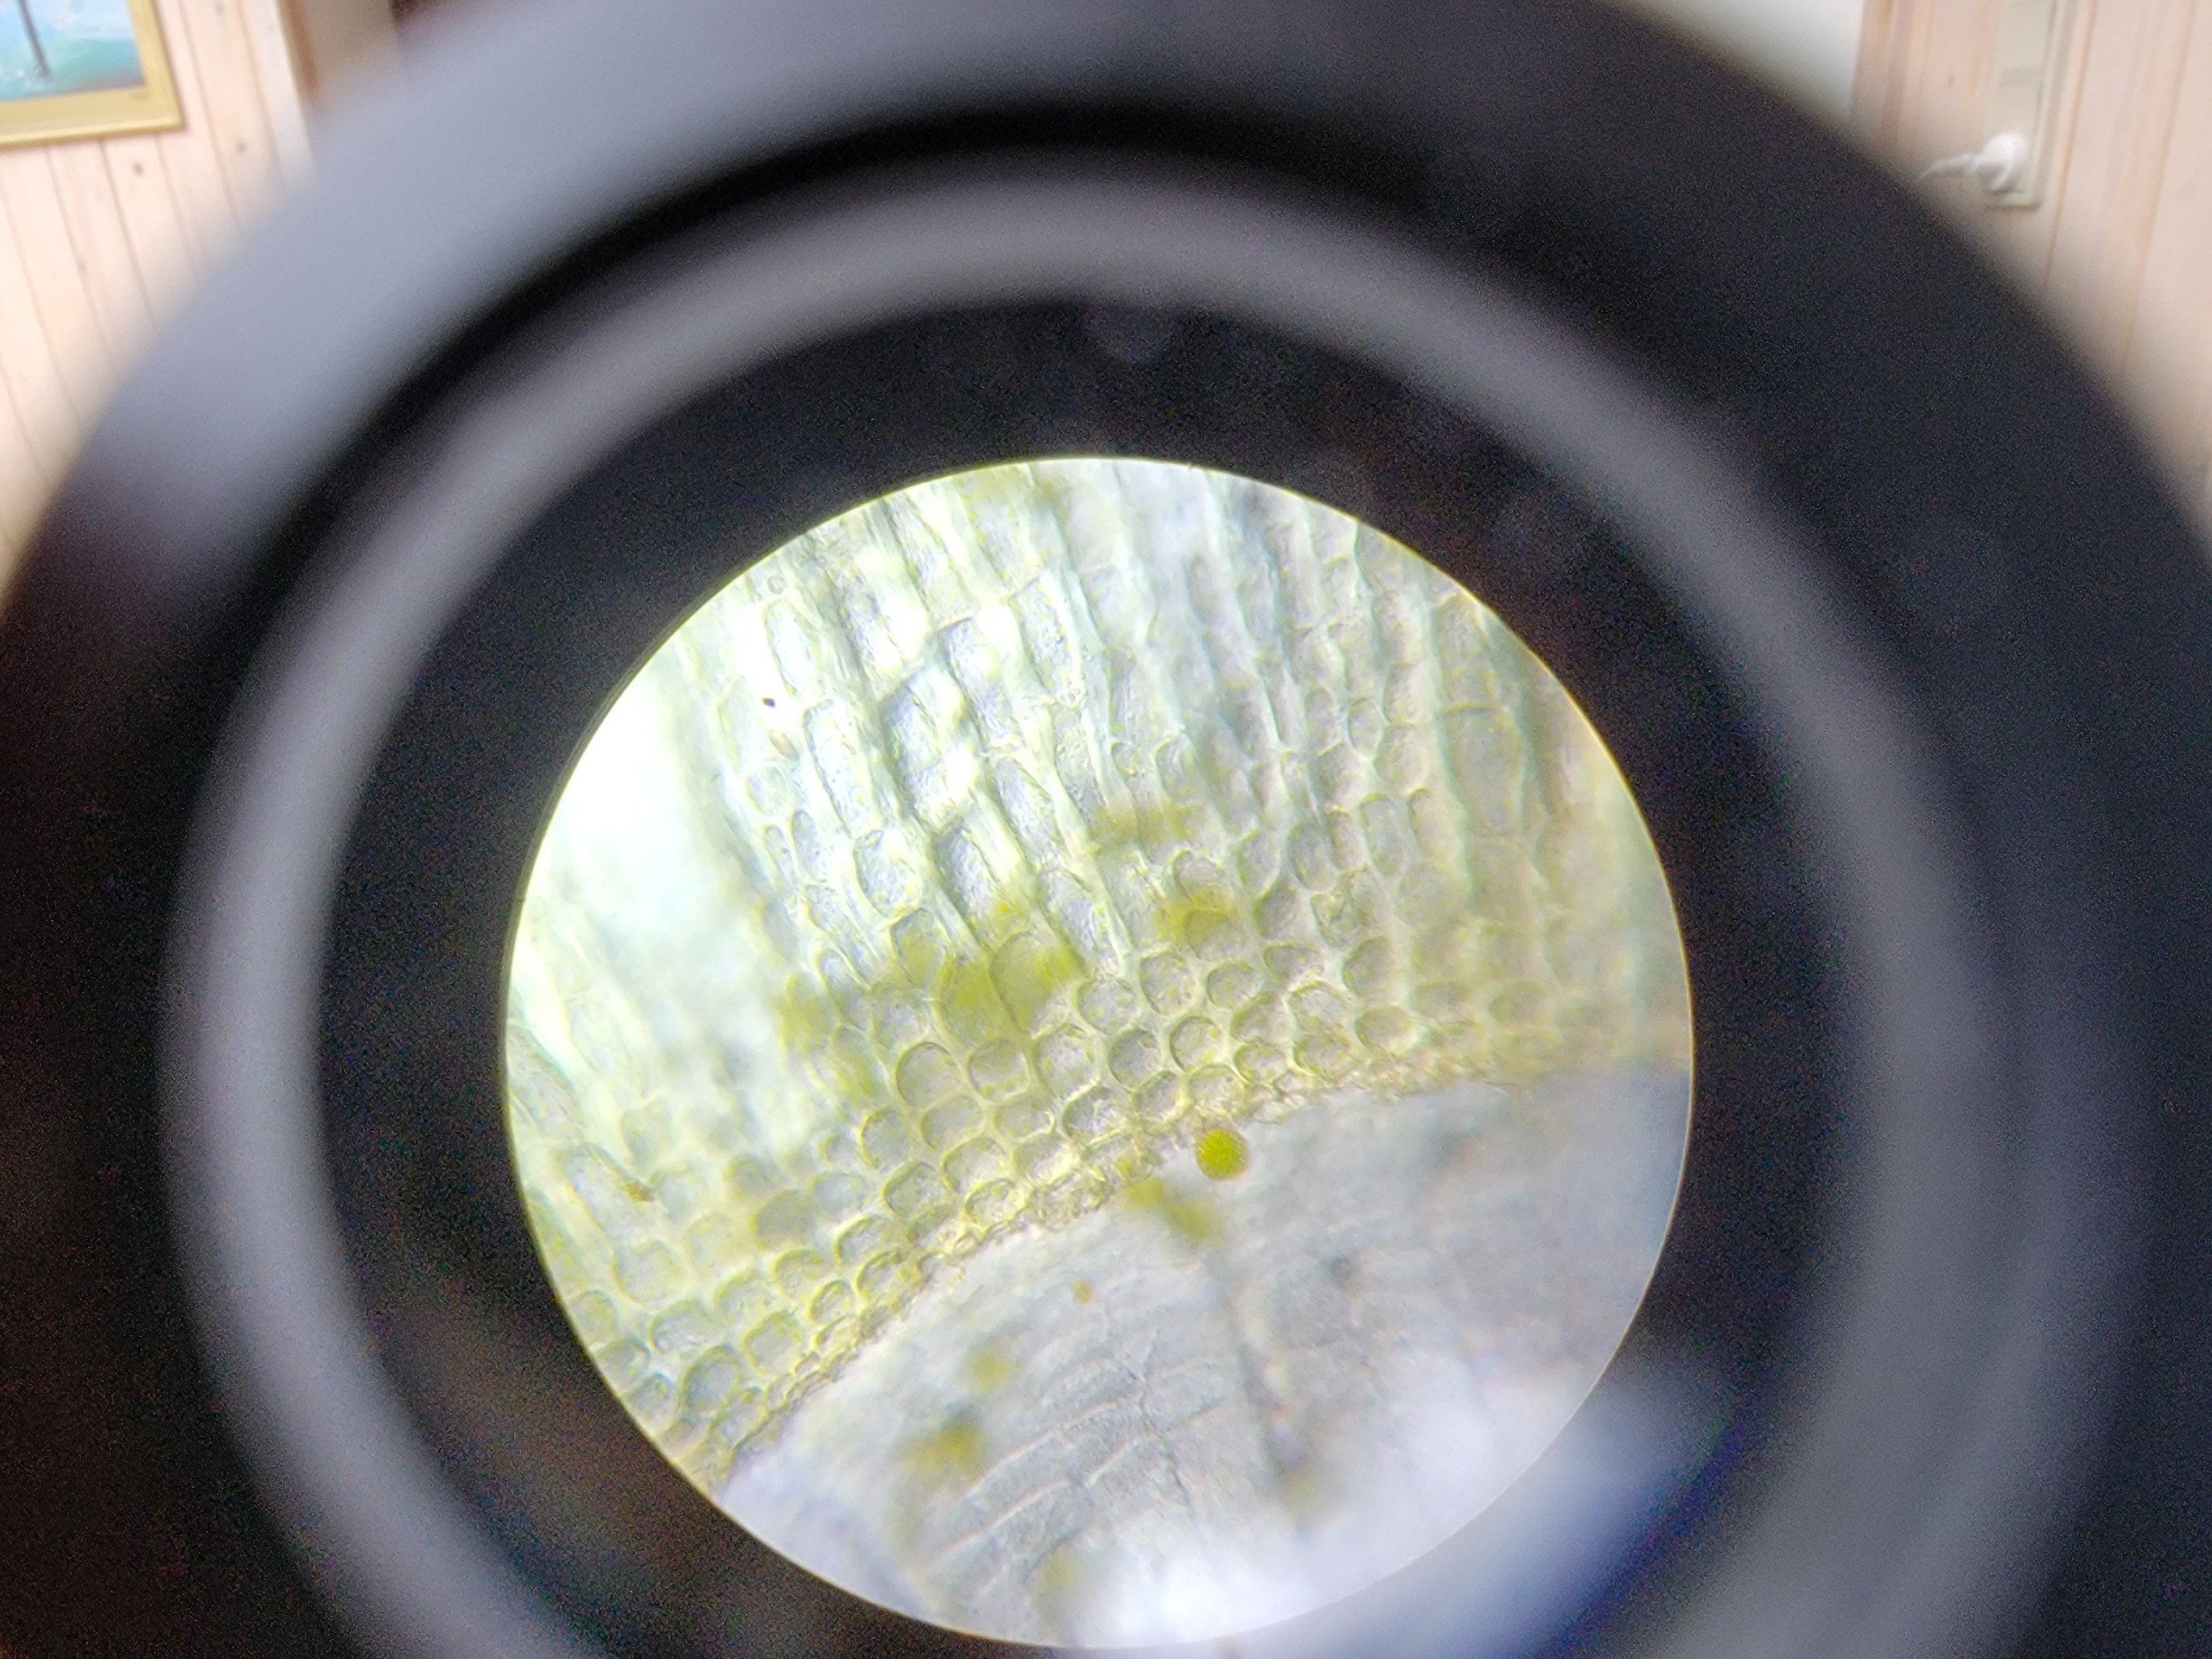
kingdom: Plantae
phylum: Bryophyta
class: Bryopsida
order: Orthotrichales
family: Orthotrichaceae
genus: Ulota
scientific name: Ulota intermedia
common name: Mellem-låddenhætte
